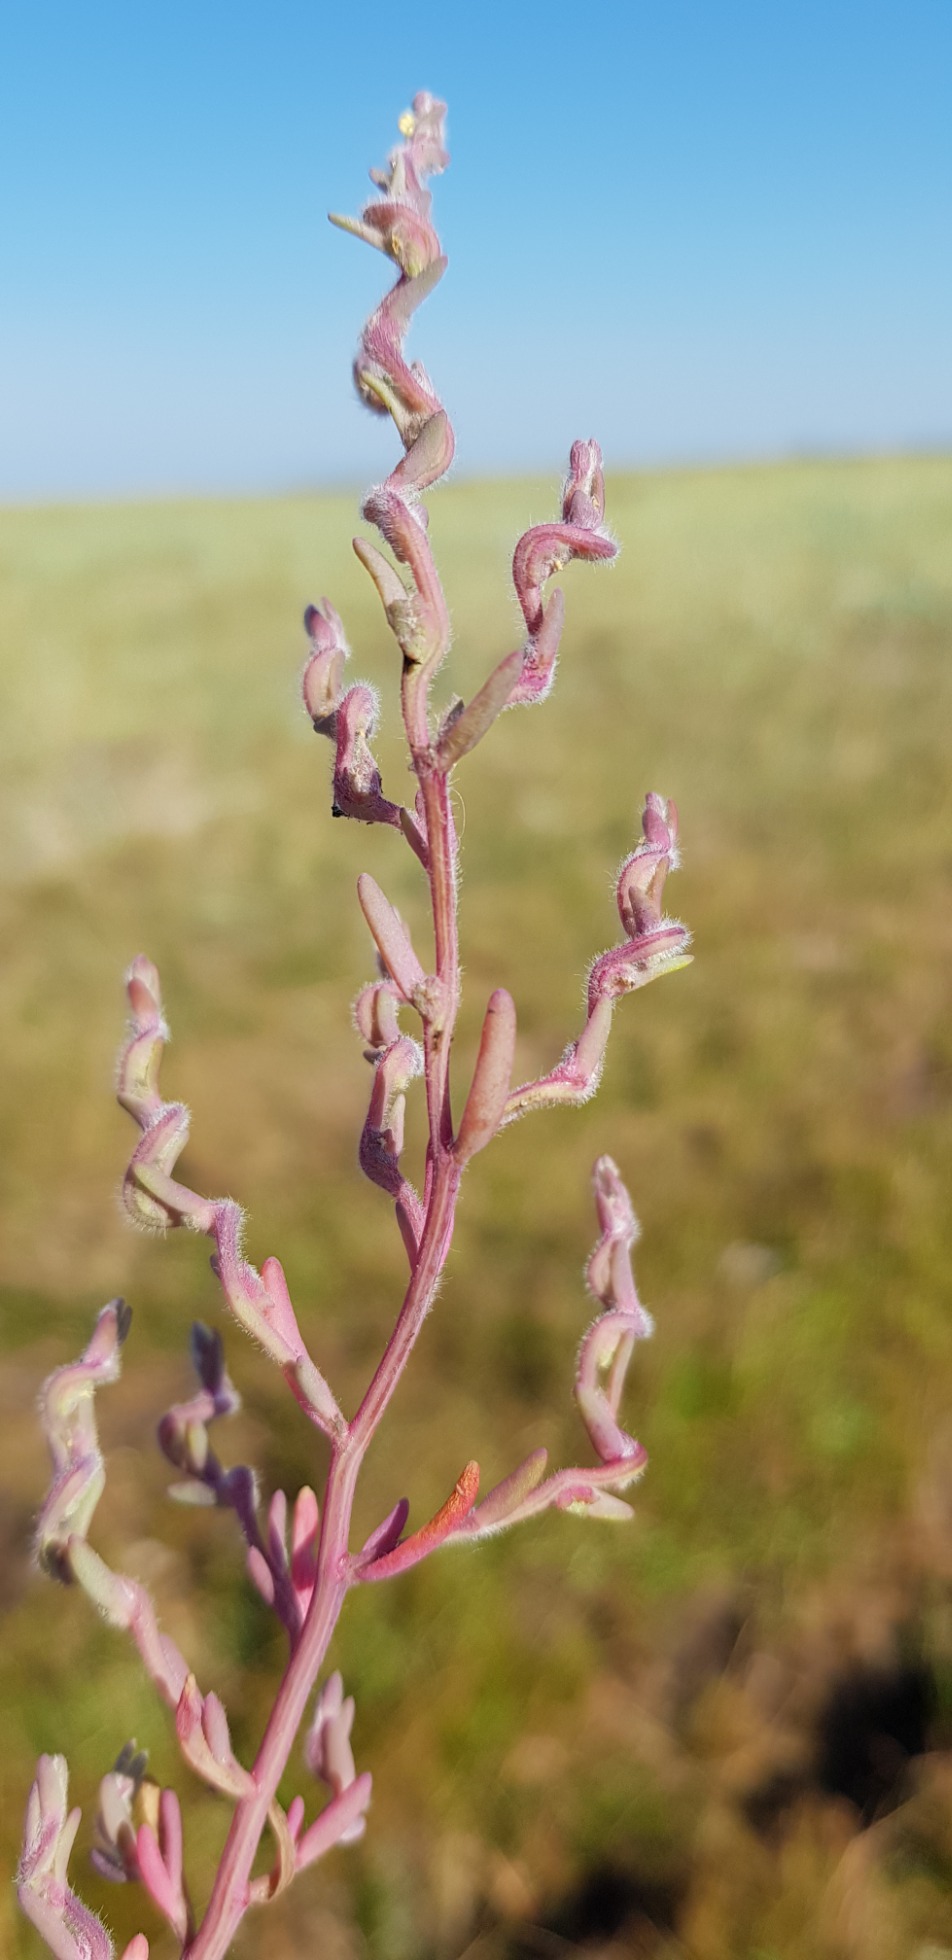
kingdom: Plantae
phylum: Tracheophyta
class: Magnoliopsida
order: Caryophyllales
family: Amaranthaceae
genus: Spirobassia
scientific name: Spirobassia hirsuta
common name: Tangurt
